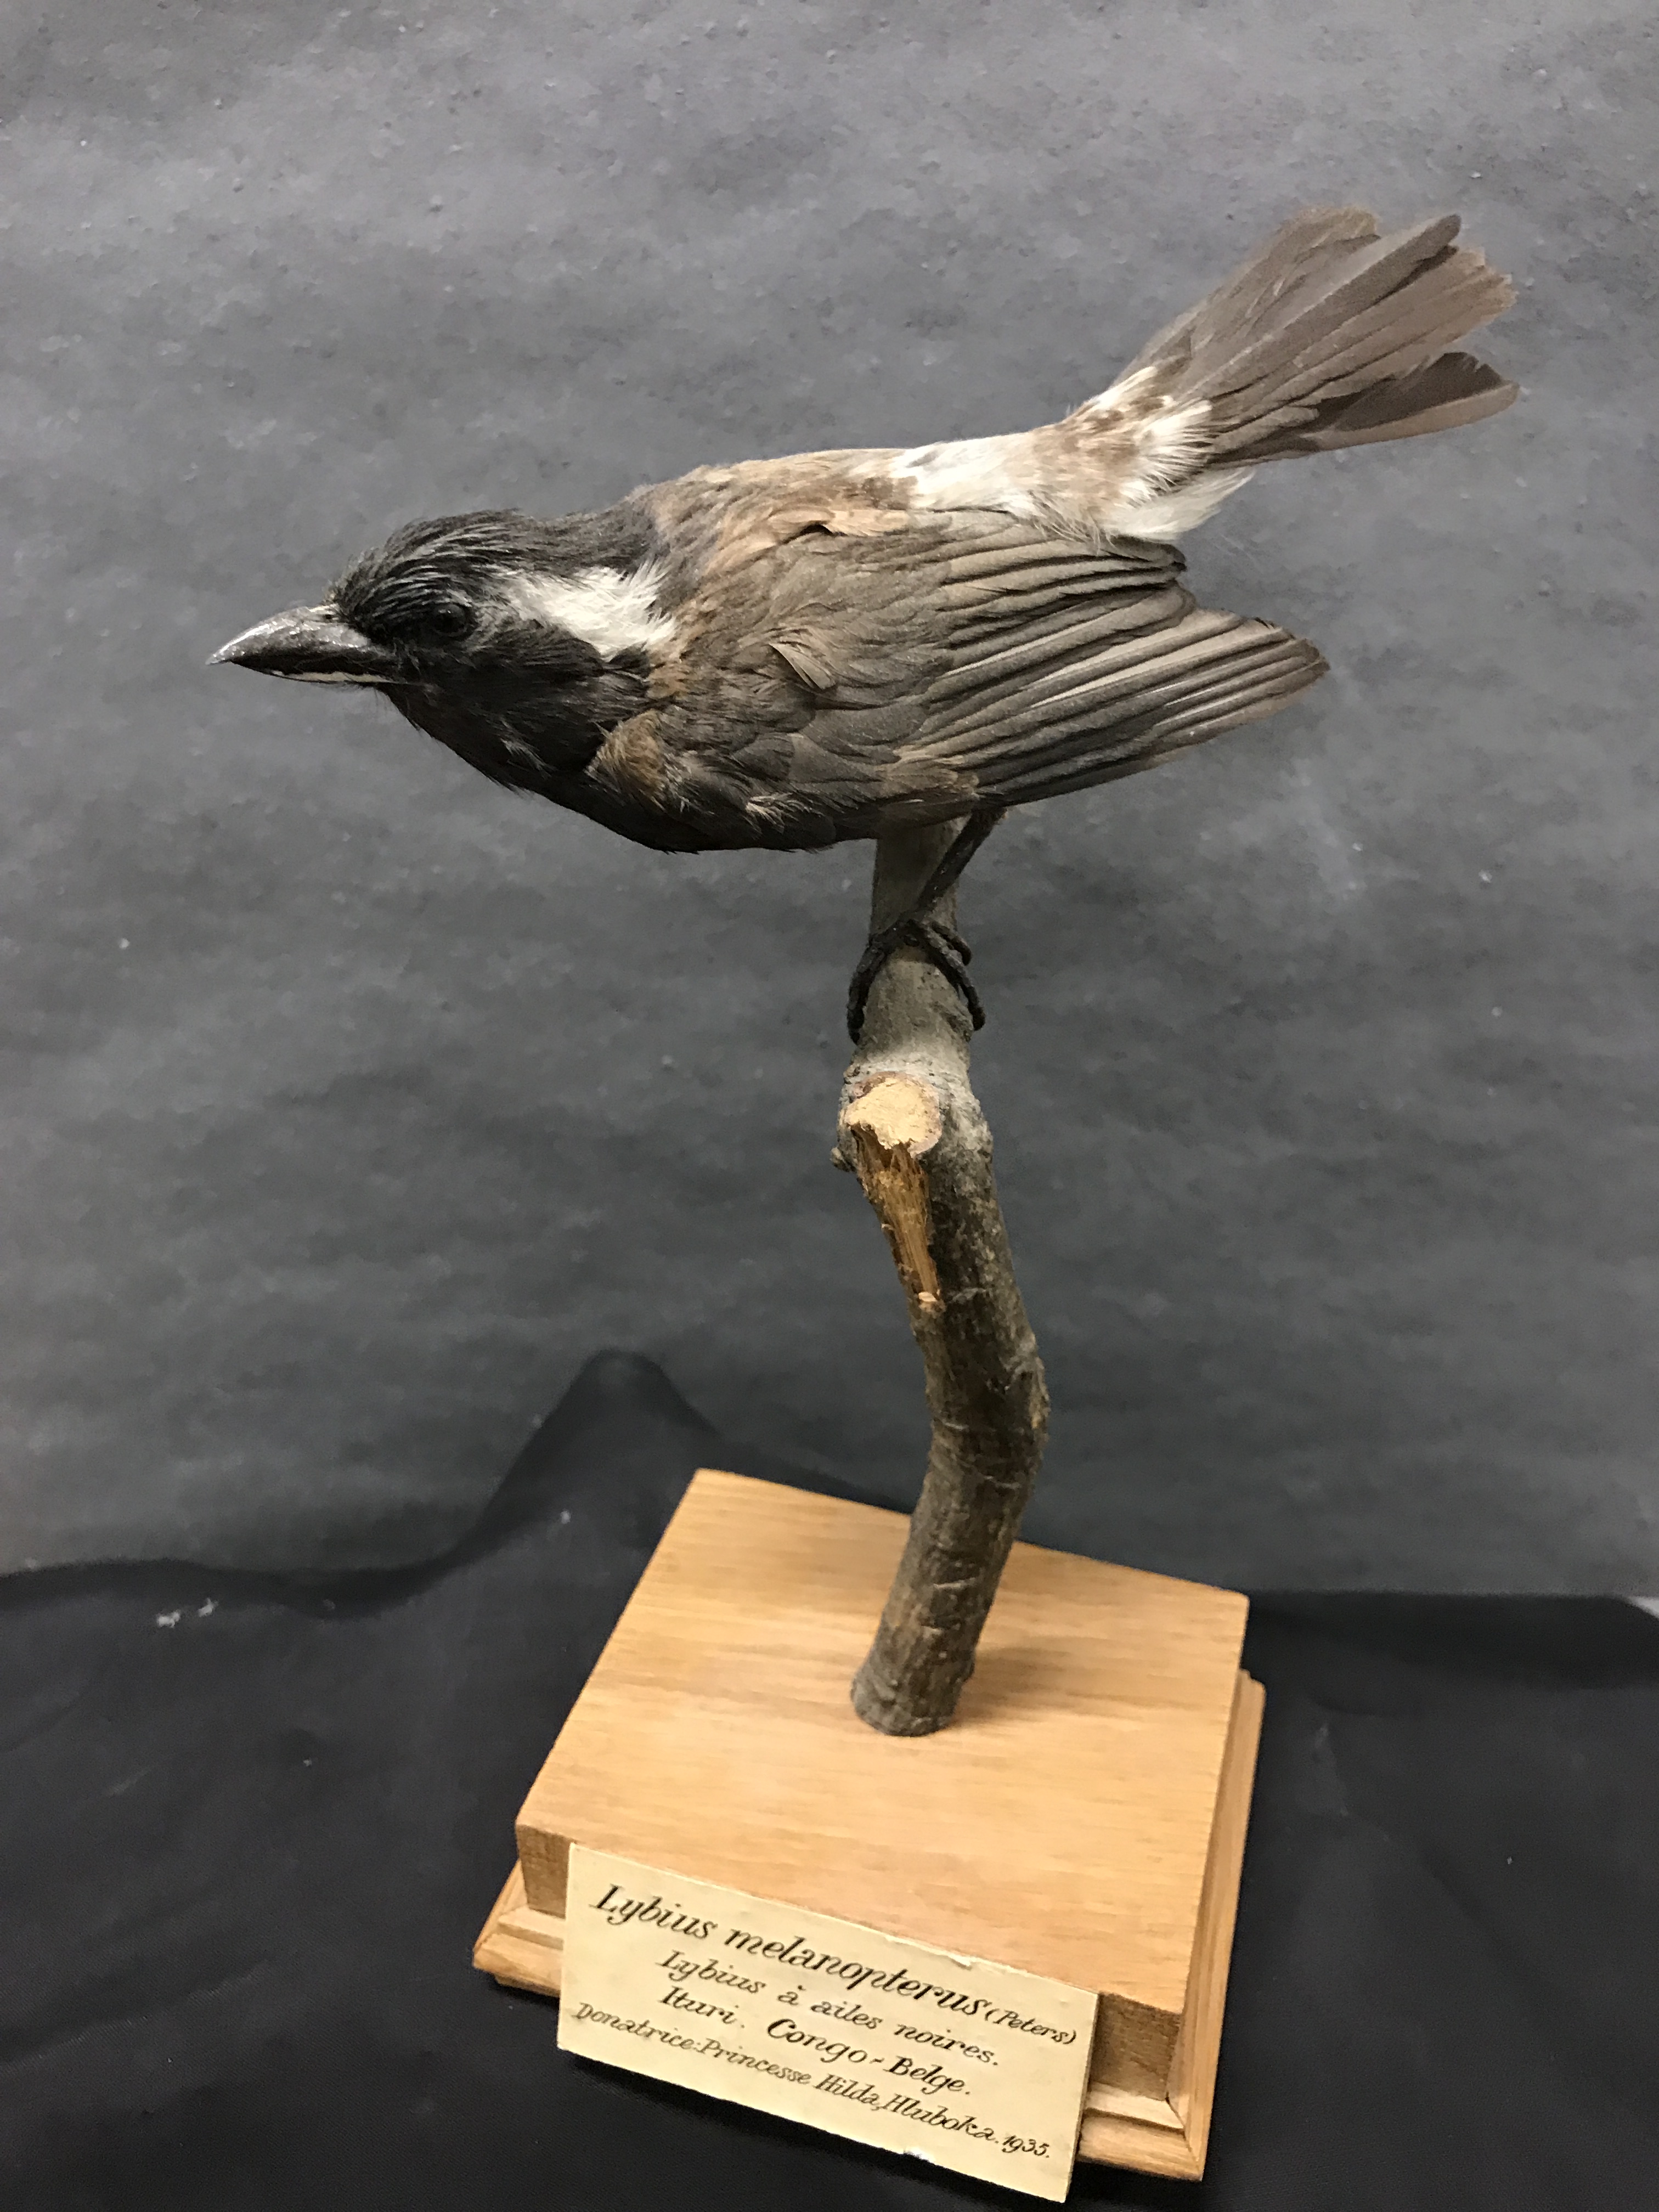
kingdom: Animalia
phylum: Chordata
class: Aves
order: Piciformes
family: Lybiidae
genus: Stactolaema
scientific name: Stactolaema leucotis
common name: White-eared barbet
